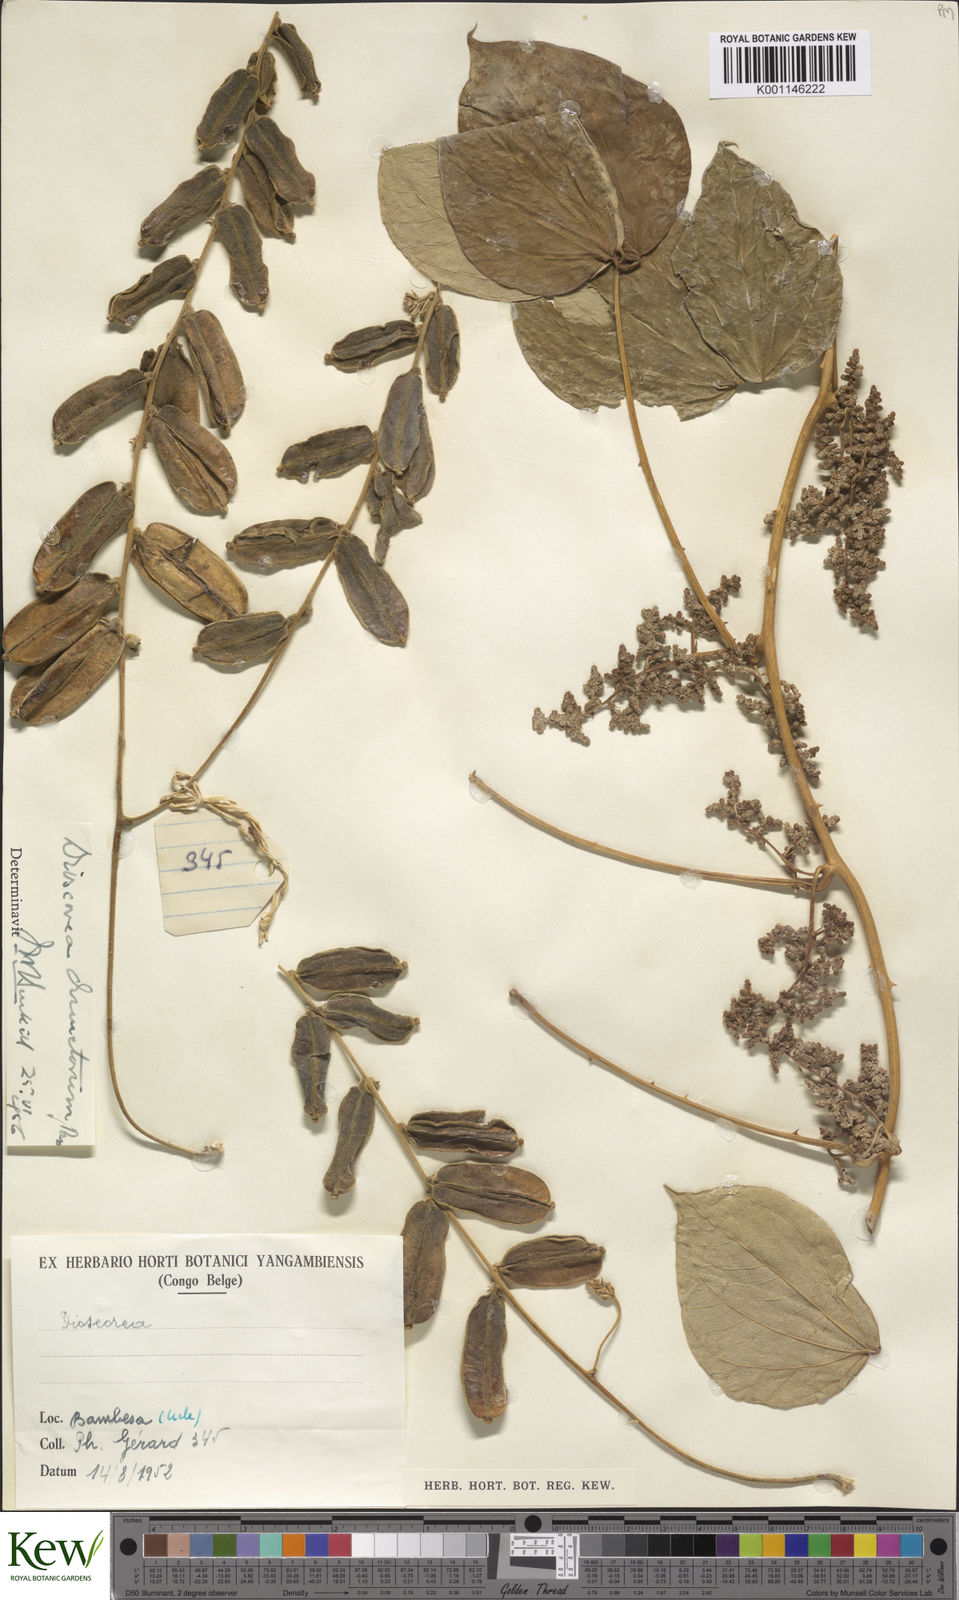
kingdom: Plantae
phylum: Tracheophyta
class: Liliopsida
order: Dioscoreales
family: Dioscoreaceae
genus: Dioscorea
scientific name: Dioscorea dumetorum
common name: African bitter yam
